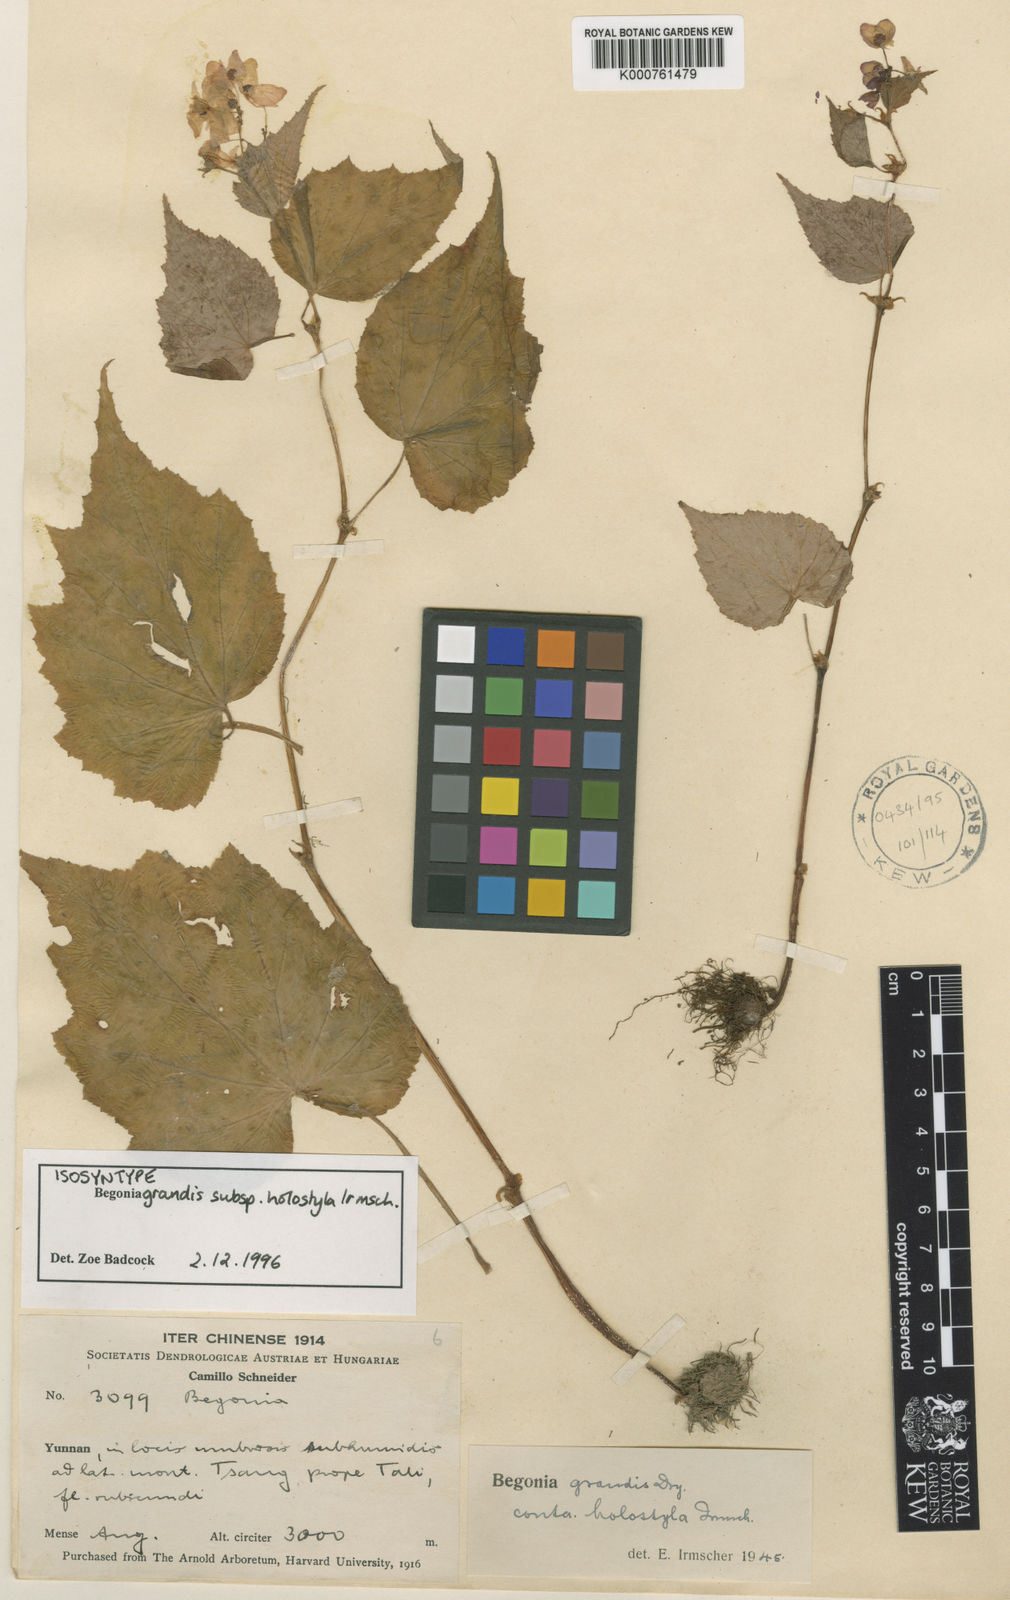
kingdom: Plantae
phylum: Tracheophyta
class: Magnoliopsida
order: Cucurbitales
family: Begoniaceae
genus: Begonia
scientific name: Begonia grandis
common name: Hardy begonia
